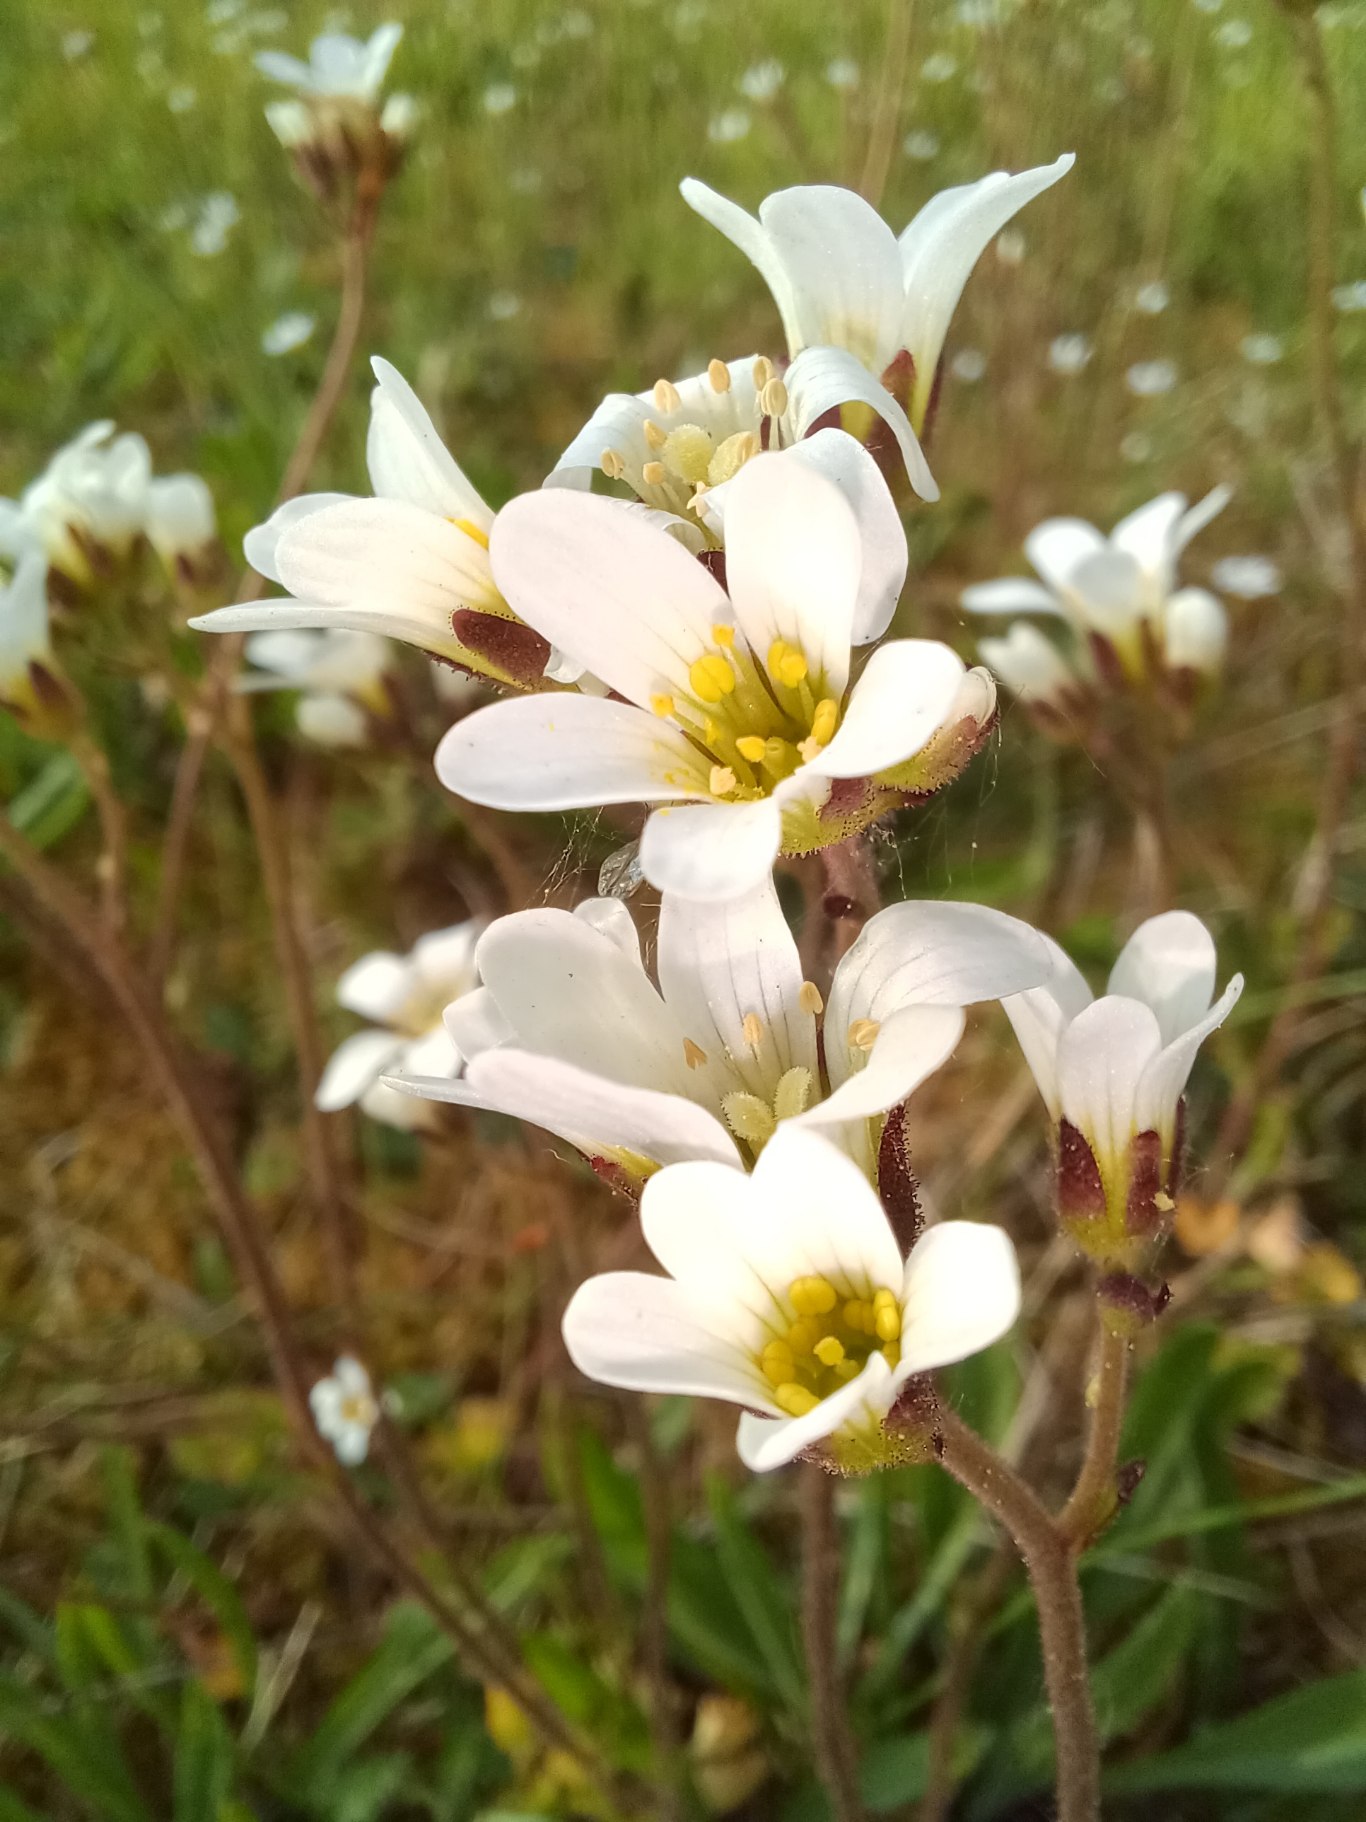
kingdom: Plantae
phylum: Tracheophyta
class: Magnoliopsida
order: Saxifragales
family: Saxifragaceae
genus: Saxifraga
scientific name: Saxifraga granulata
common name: Kornet stenbræk
